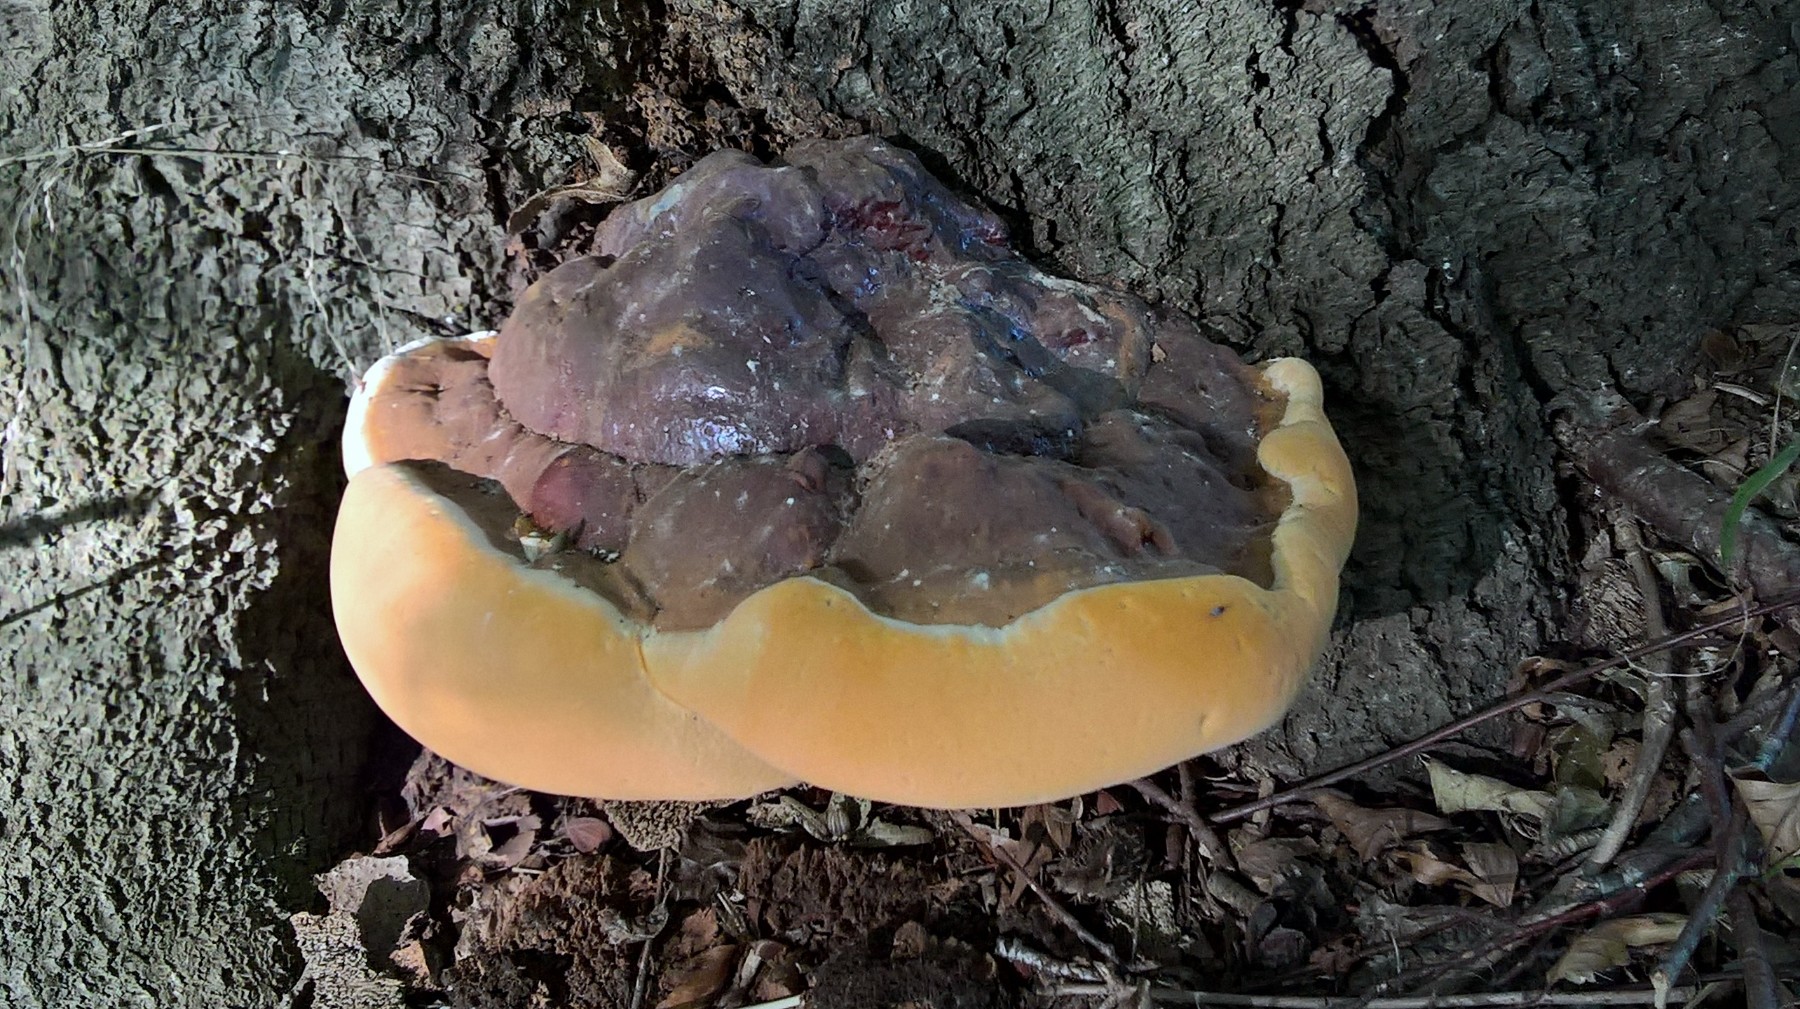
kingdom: Fungi
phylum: Basidiomycota
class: Agaricomycetes
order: Polyporales
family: Polyporaceae
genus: Ganoderma
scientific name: Ganoderma resinaceum
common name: gyldenbrun lakporesvamp
